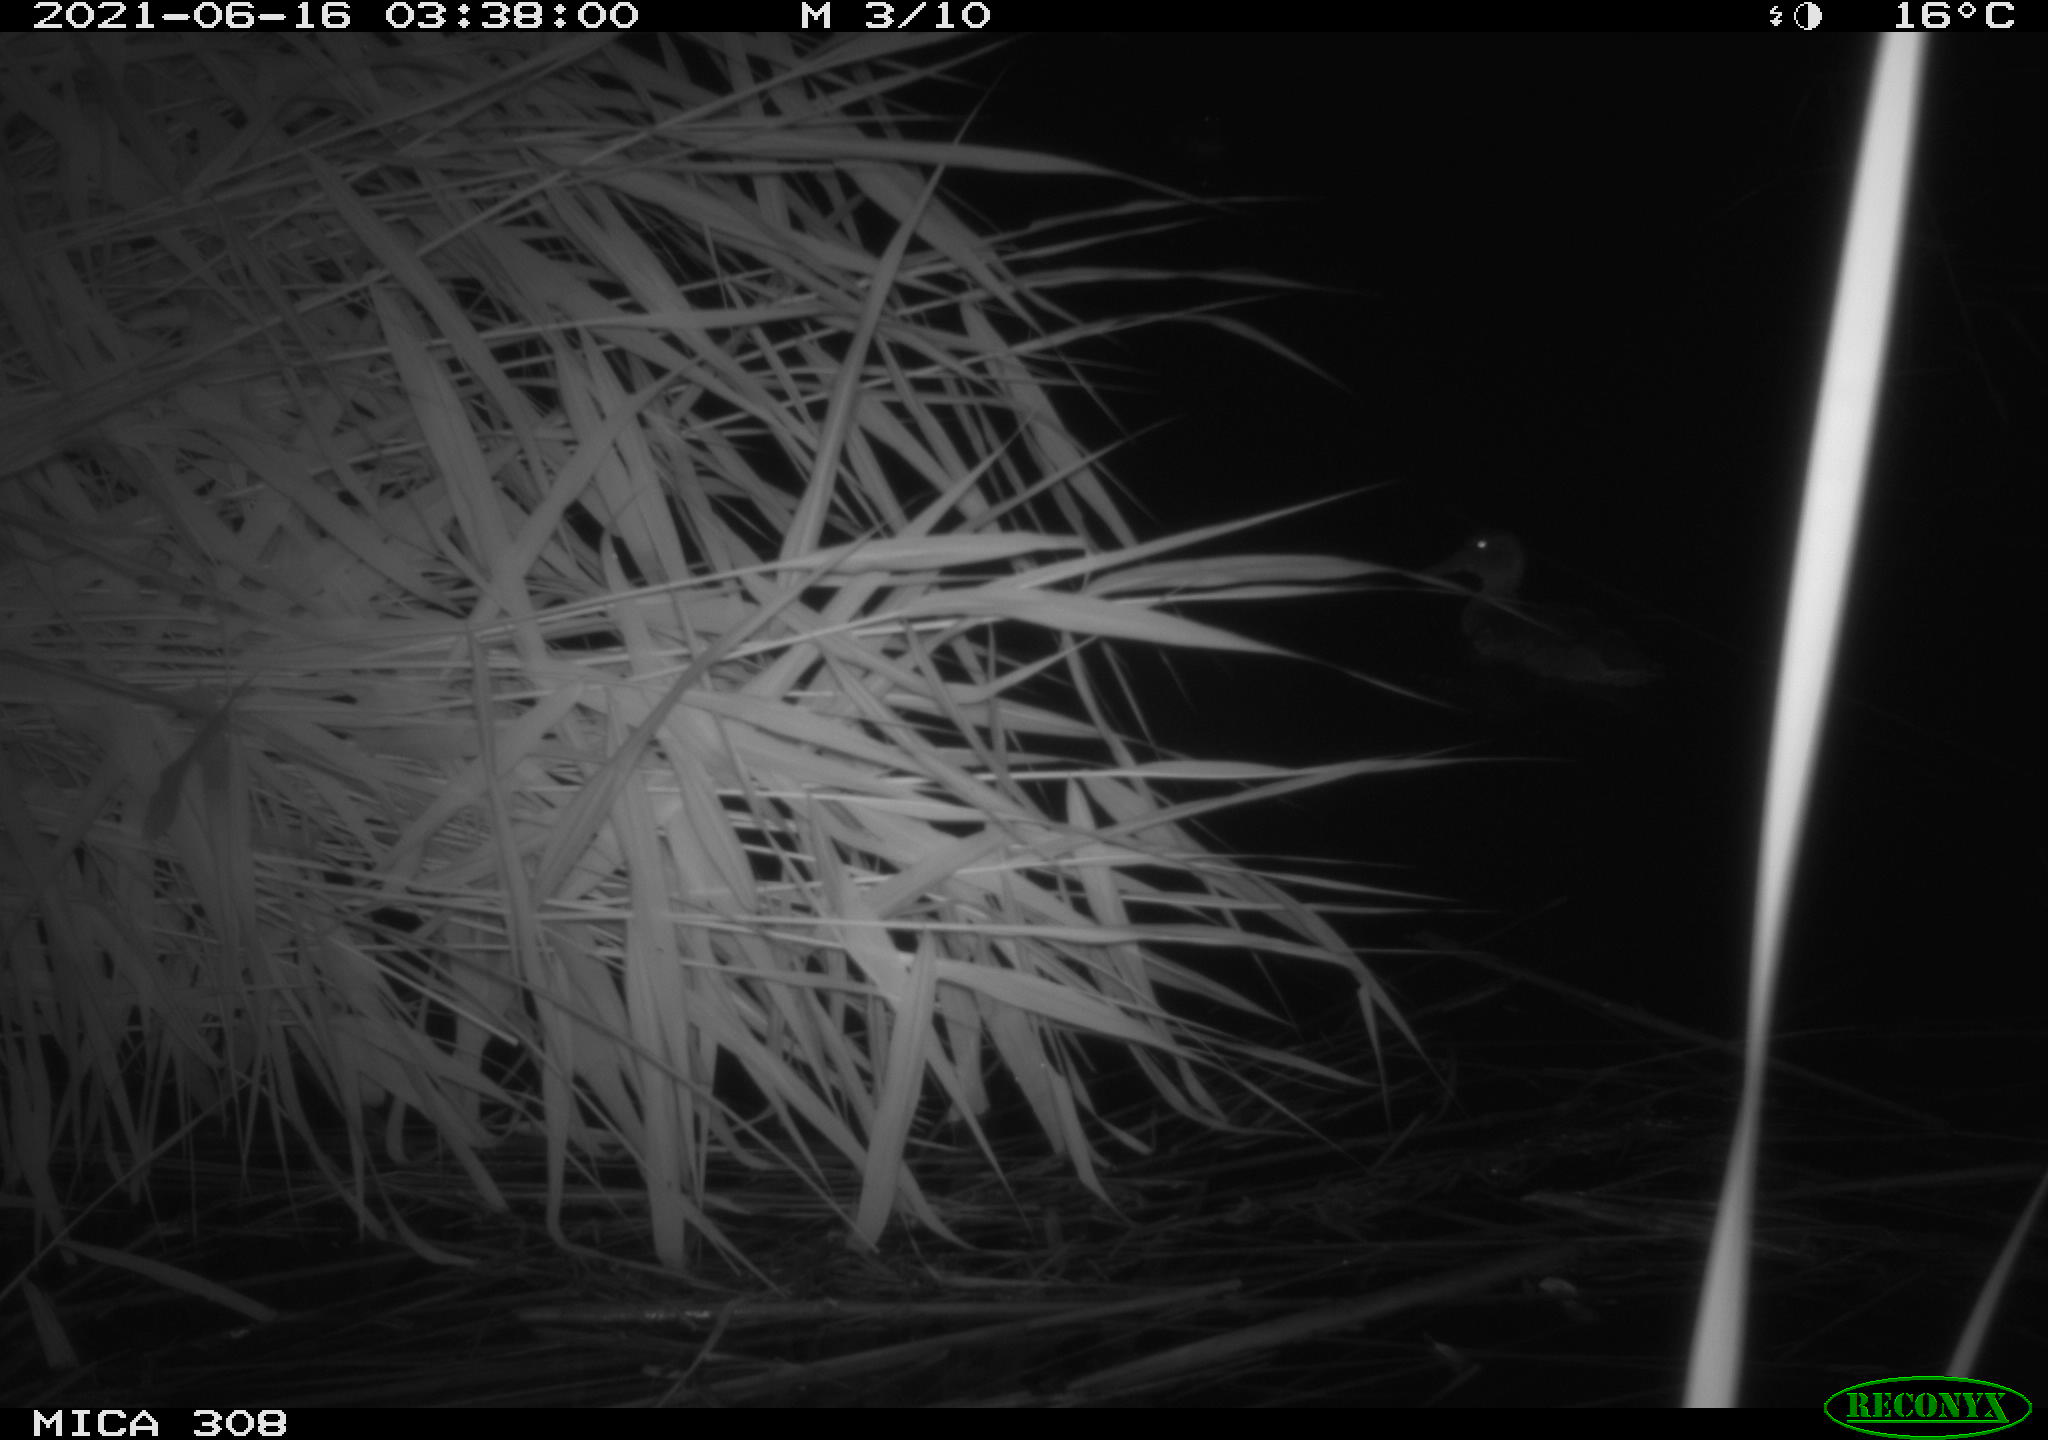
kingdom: Animalia
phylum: Chordata
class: Aves
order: Anseriformes
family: Anatidae
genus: Anas
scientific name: Anas platyrhynchos
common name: Mallard
